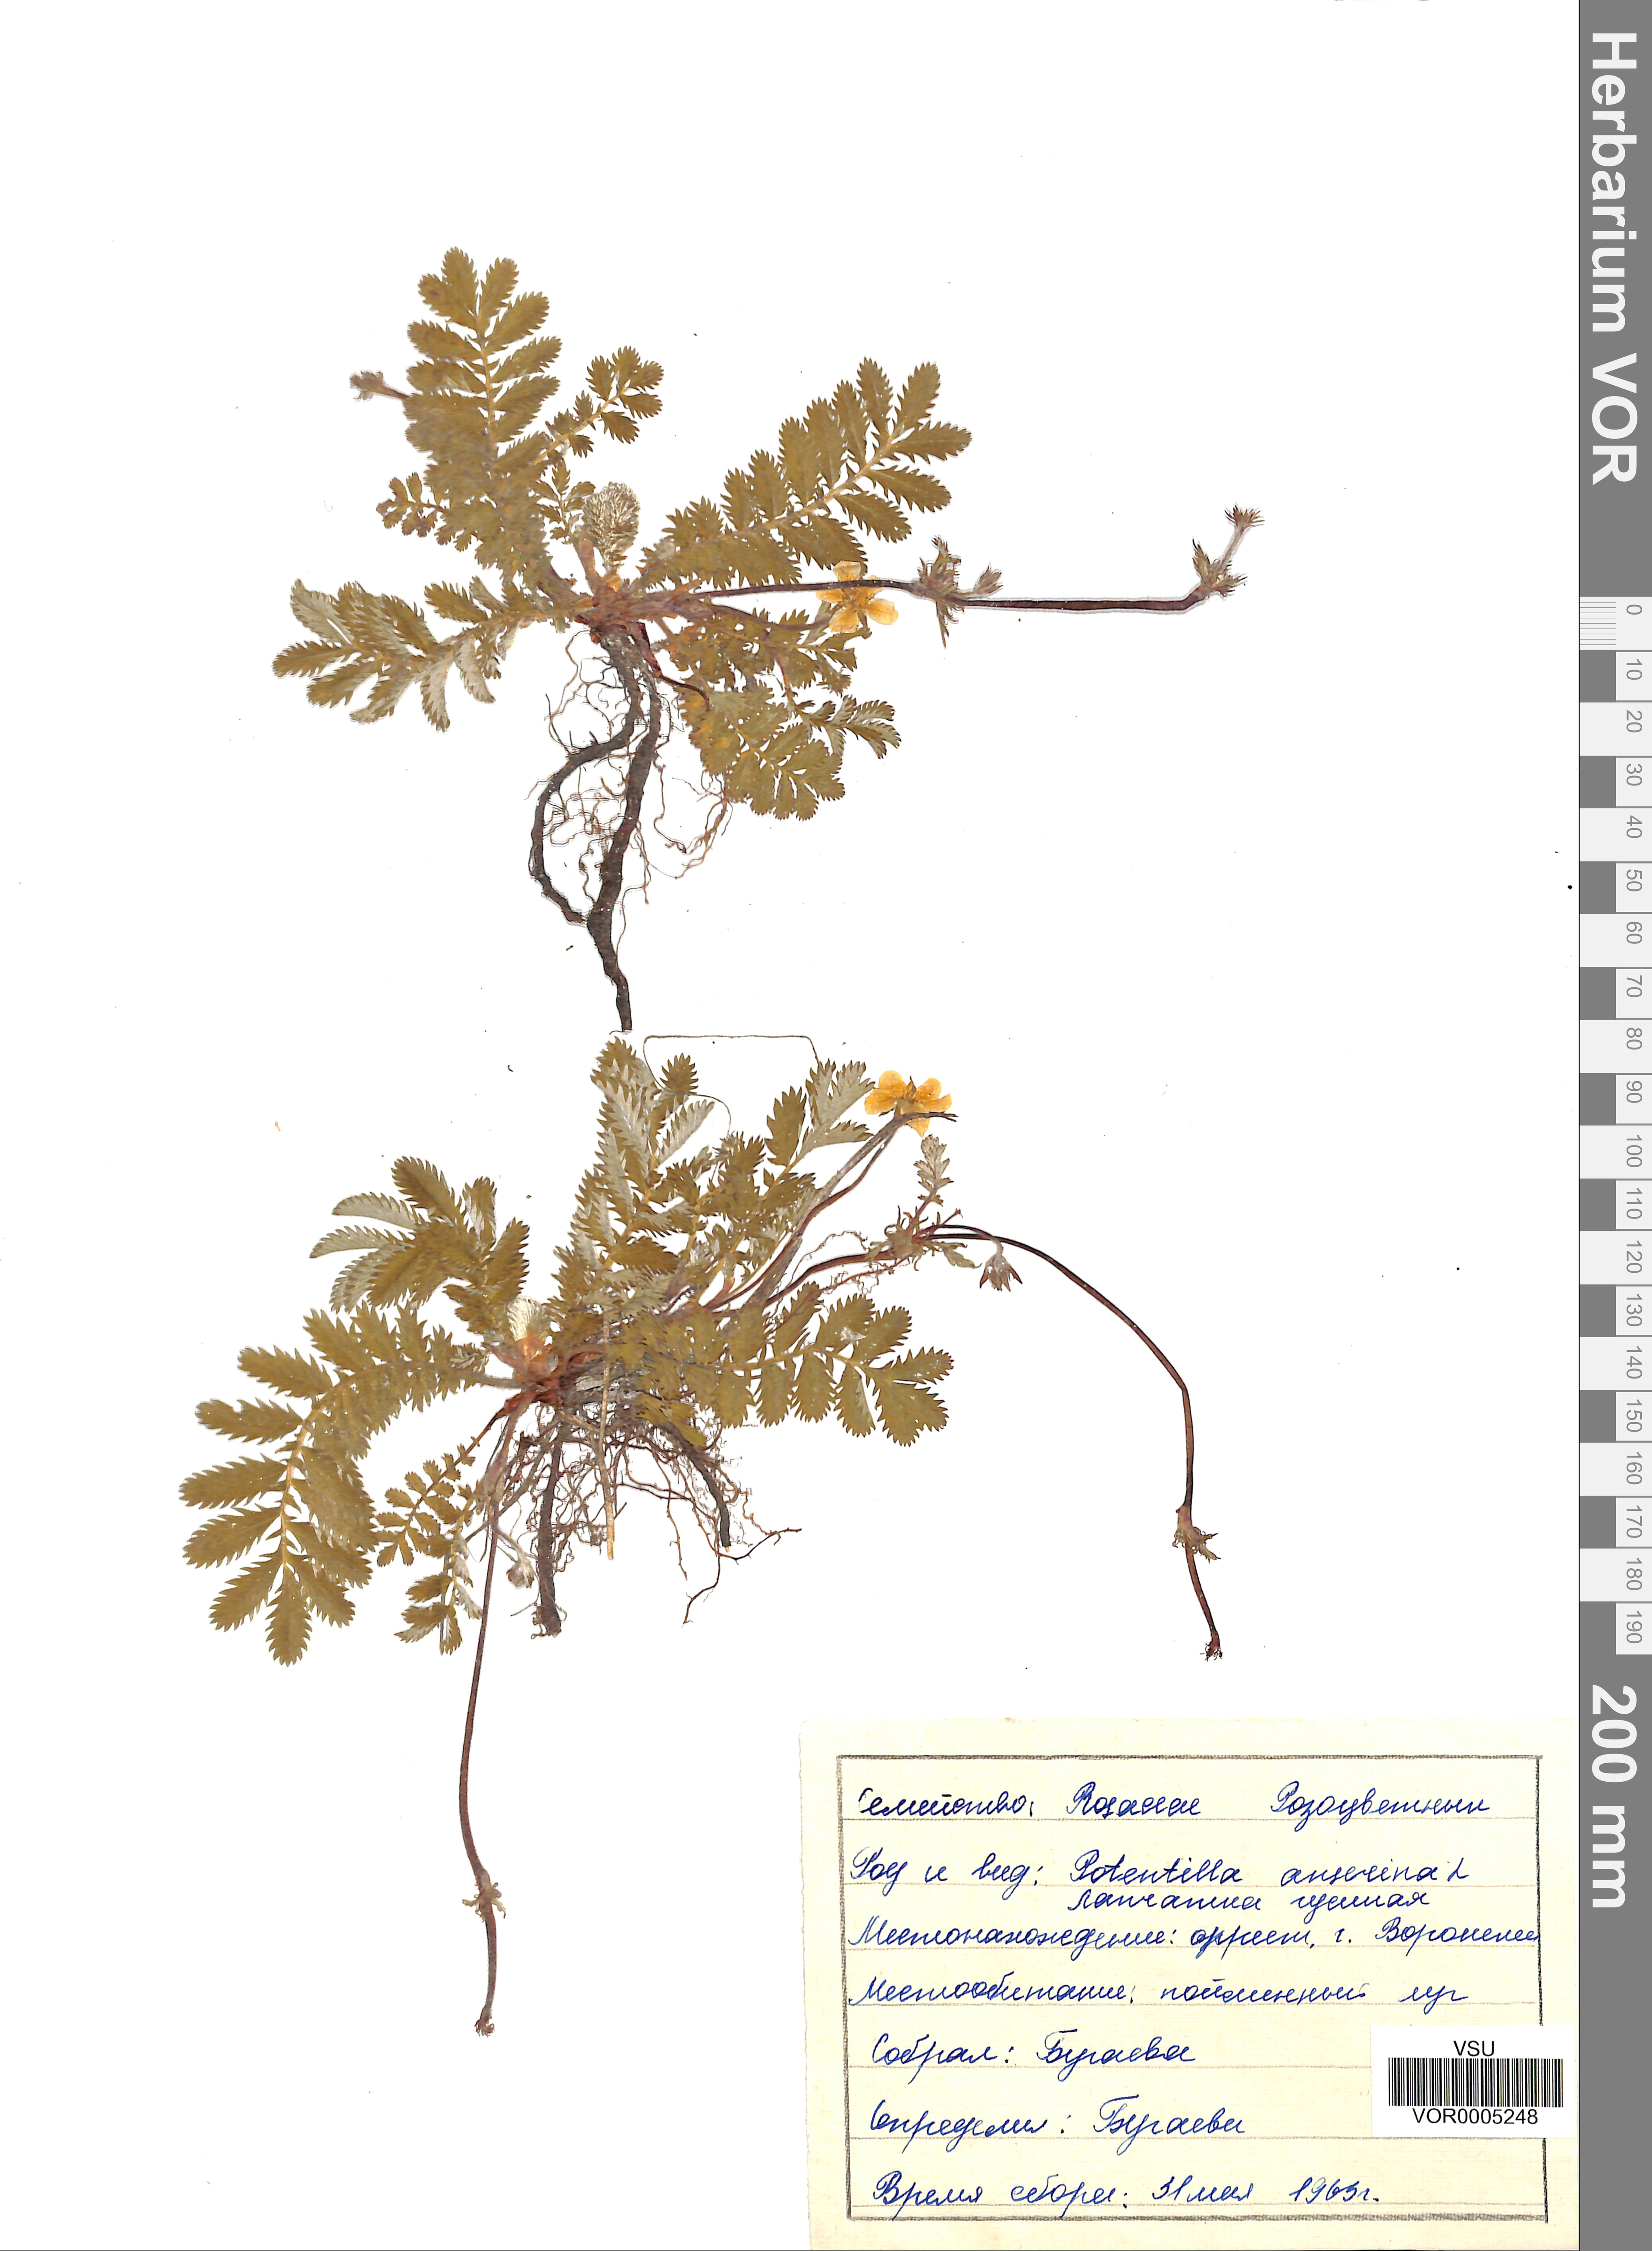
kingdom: Plantae
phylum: Tracheophyta
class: Magnoliopsida
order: Rosales
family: Rosaceae
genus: Argentina
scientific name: Argentina anserina
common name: Common silverweed
